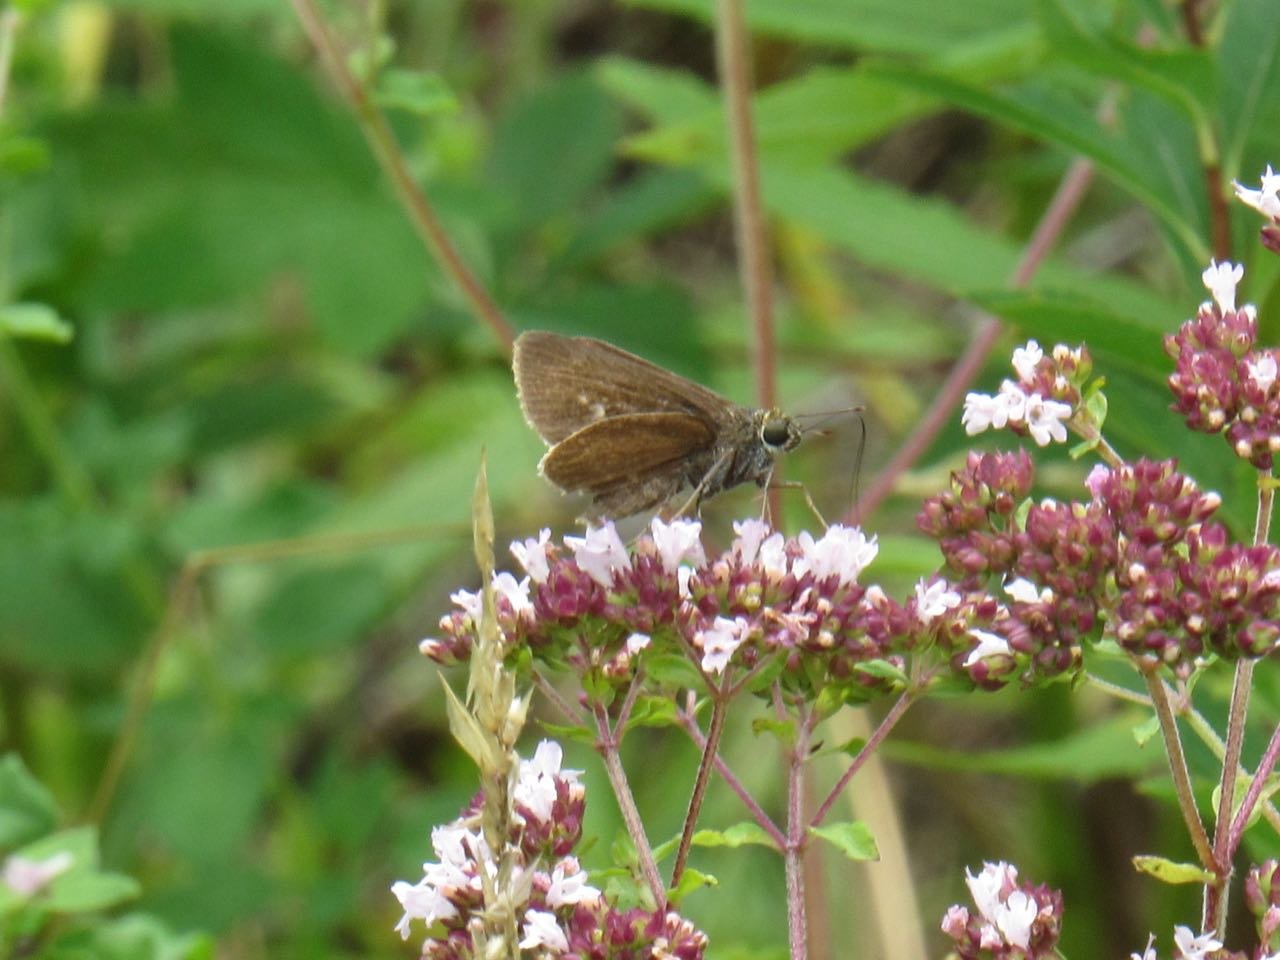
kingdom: Animalia
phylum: Arthropoda
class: Insecta
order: Lepidoptera
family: Hesperiidae
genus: Euphyes
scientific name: Euphyes vestris
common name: Dun Skipper
